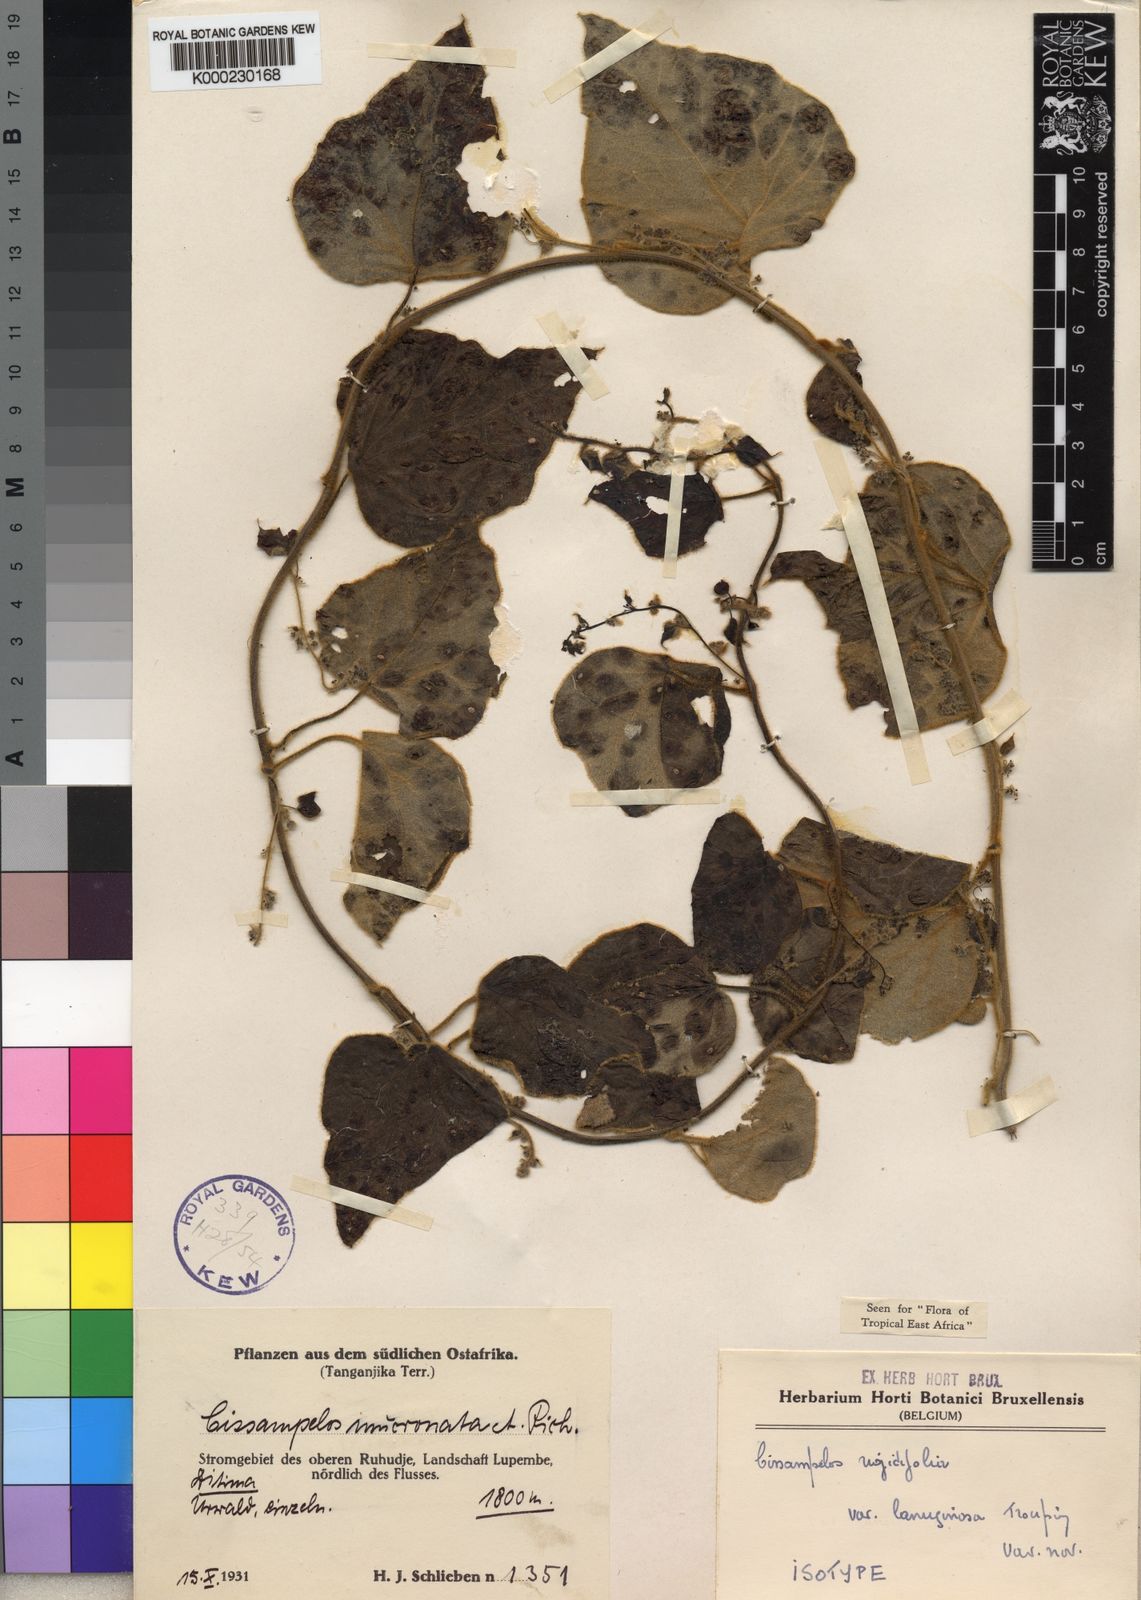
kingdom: Plantae
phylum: Tracheophyta
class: Magnoliopsida
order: Ranunculales
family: Menispermaceae
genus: Cissampelos
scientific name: Cissampelos
